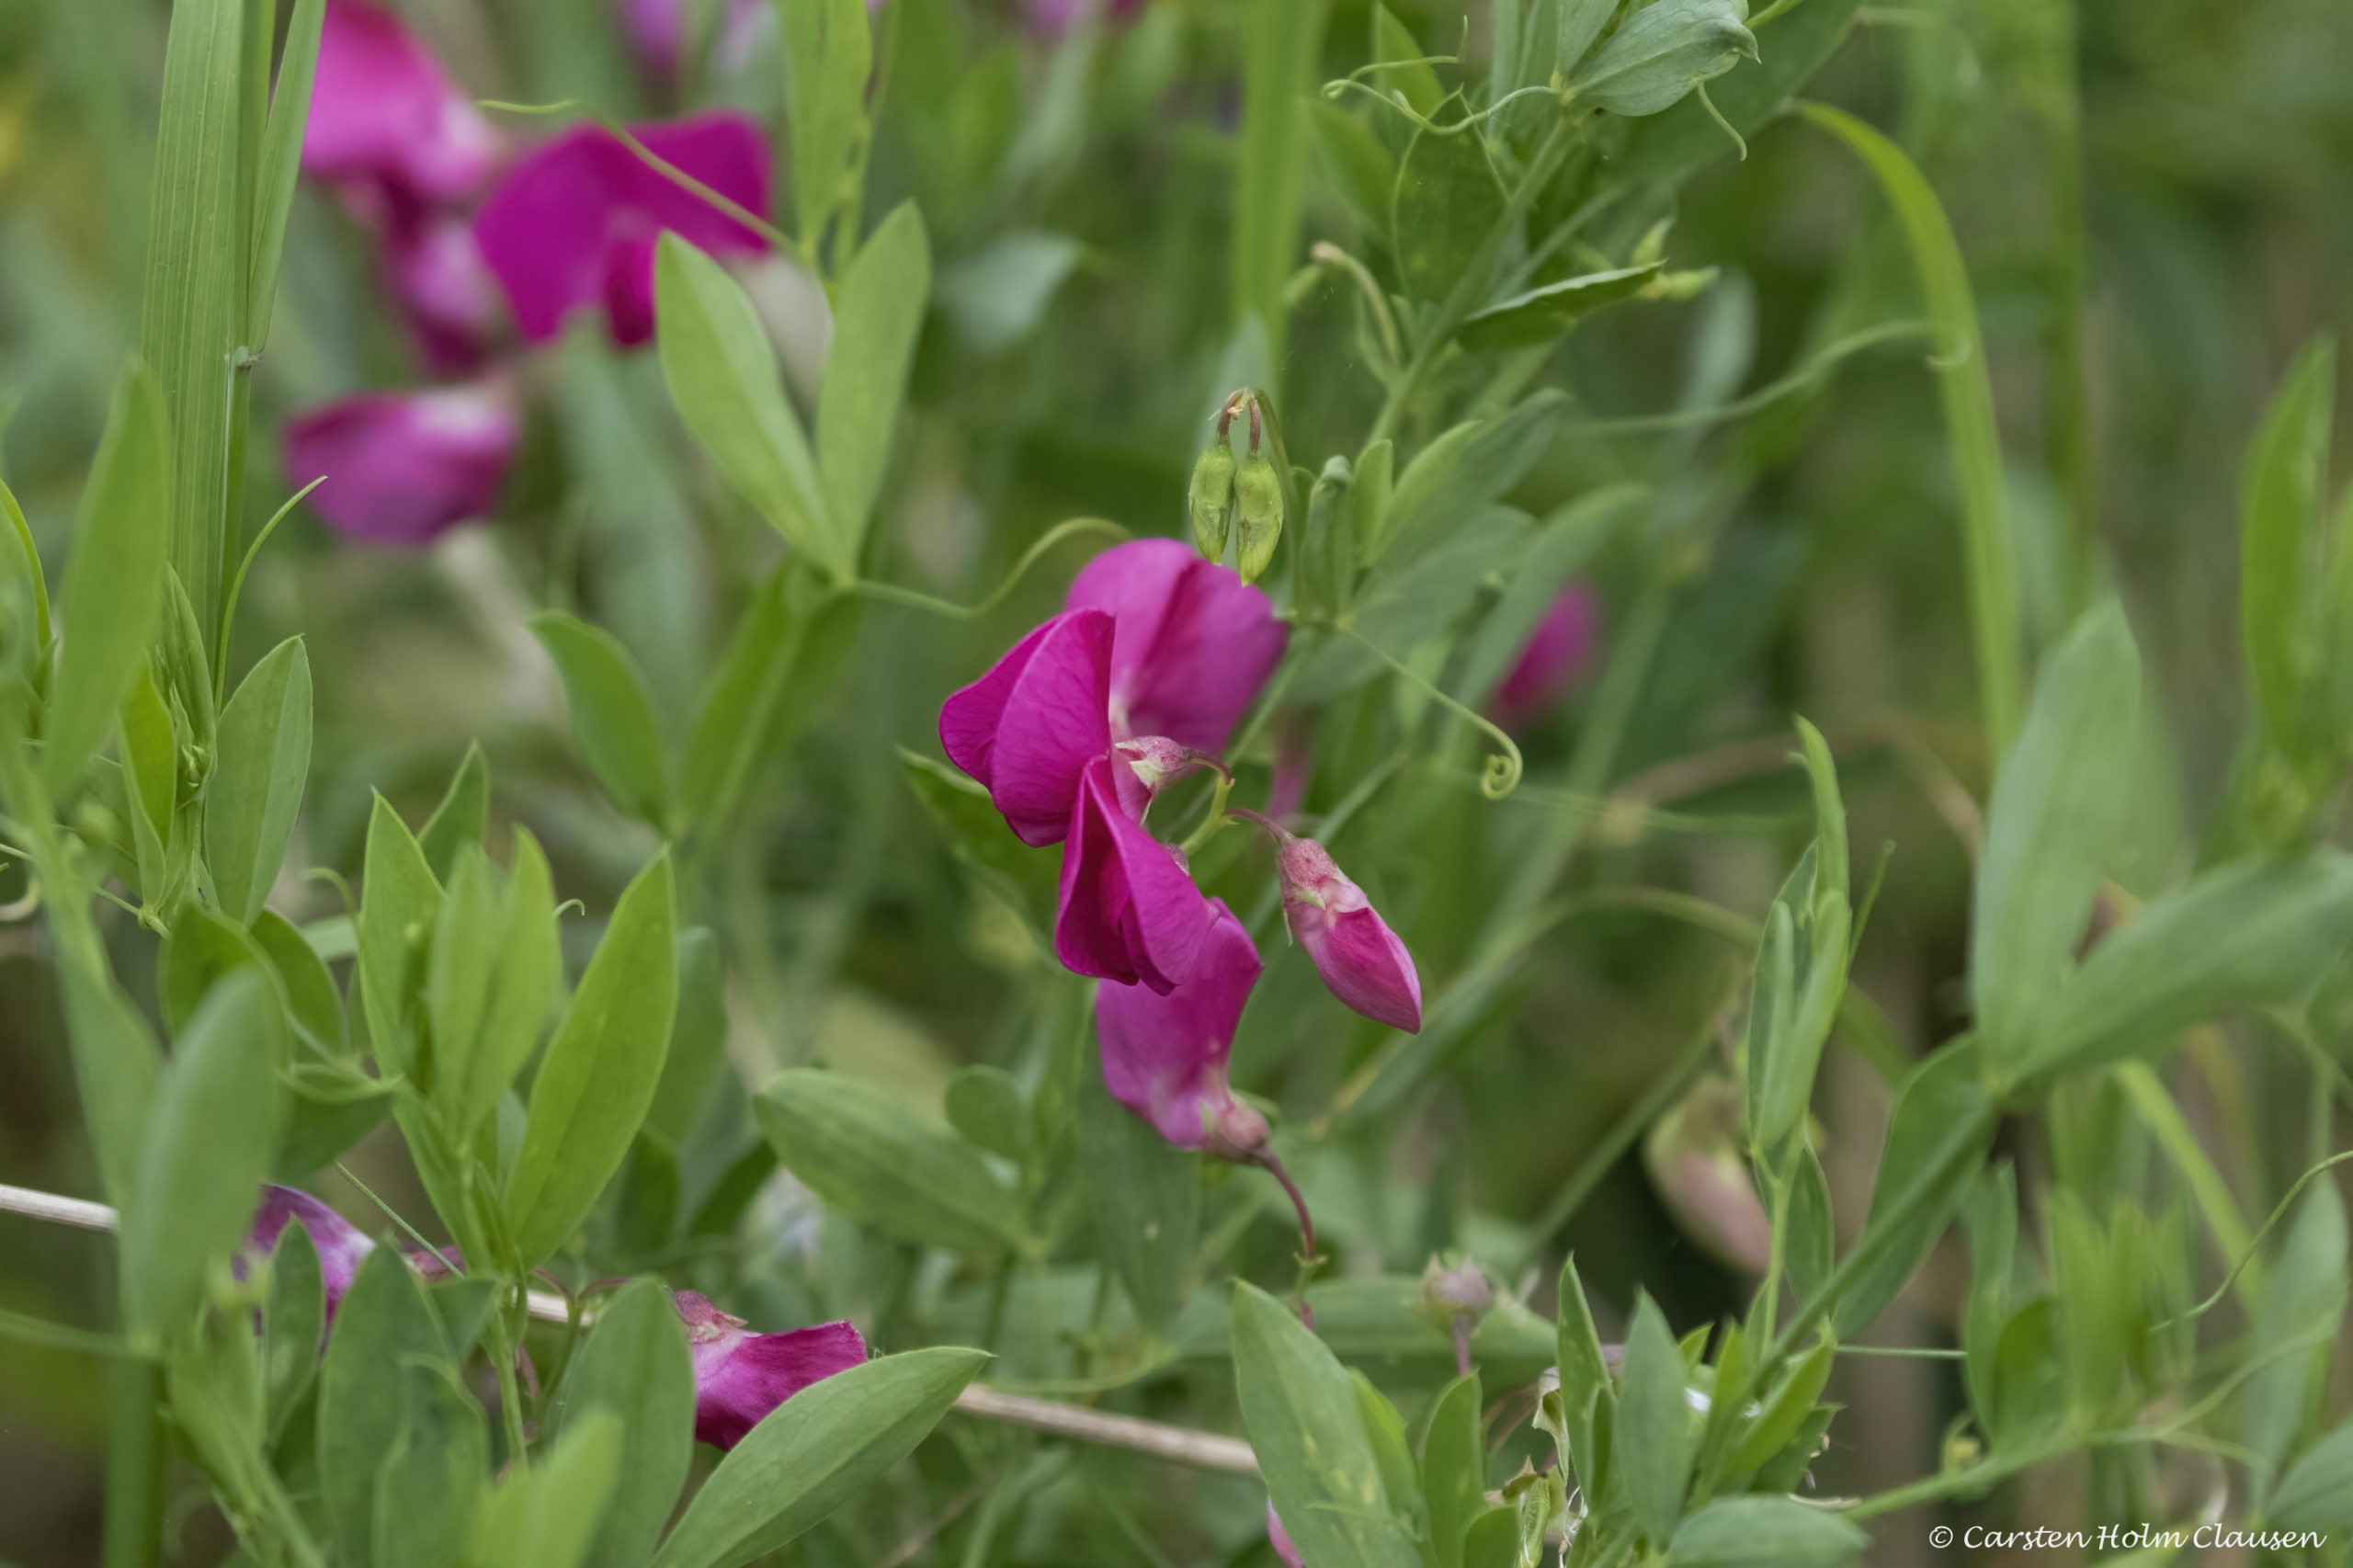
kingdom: Plantae
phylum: Tracheophyta
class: Magnoliopsida
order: Fabales
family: Fabaceae
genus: Lathyrus
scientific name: Lathyrus tuberosus
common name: Knold-fladbælg
